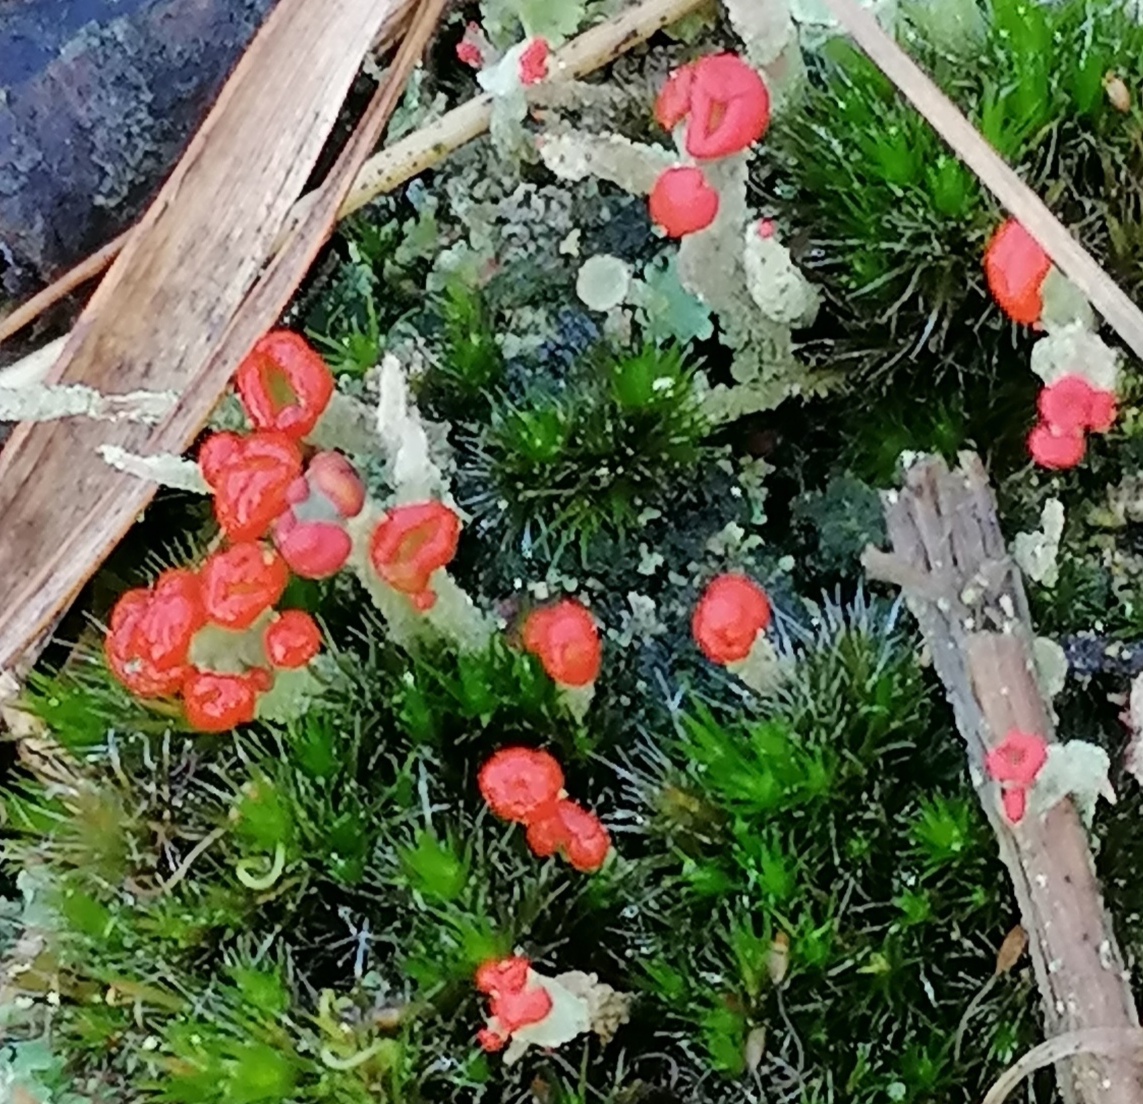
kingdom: Fungi
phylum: Ascomycota
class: Lecanoromycetes
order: Lecanorales
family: Cladoniaceae
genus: Cladonia
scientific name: Cladonia floerkeana
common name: lakrød bægerlav
